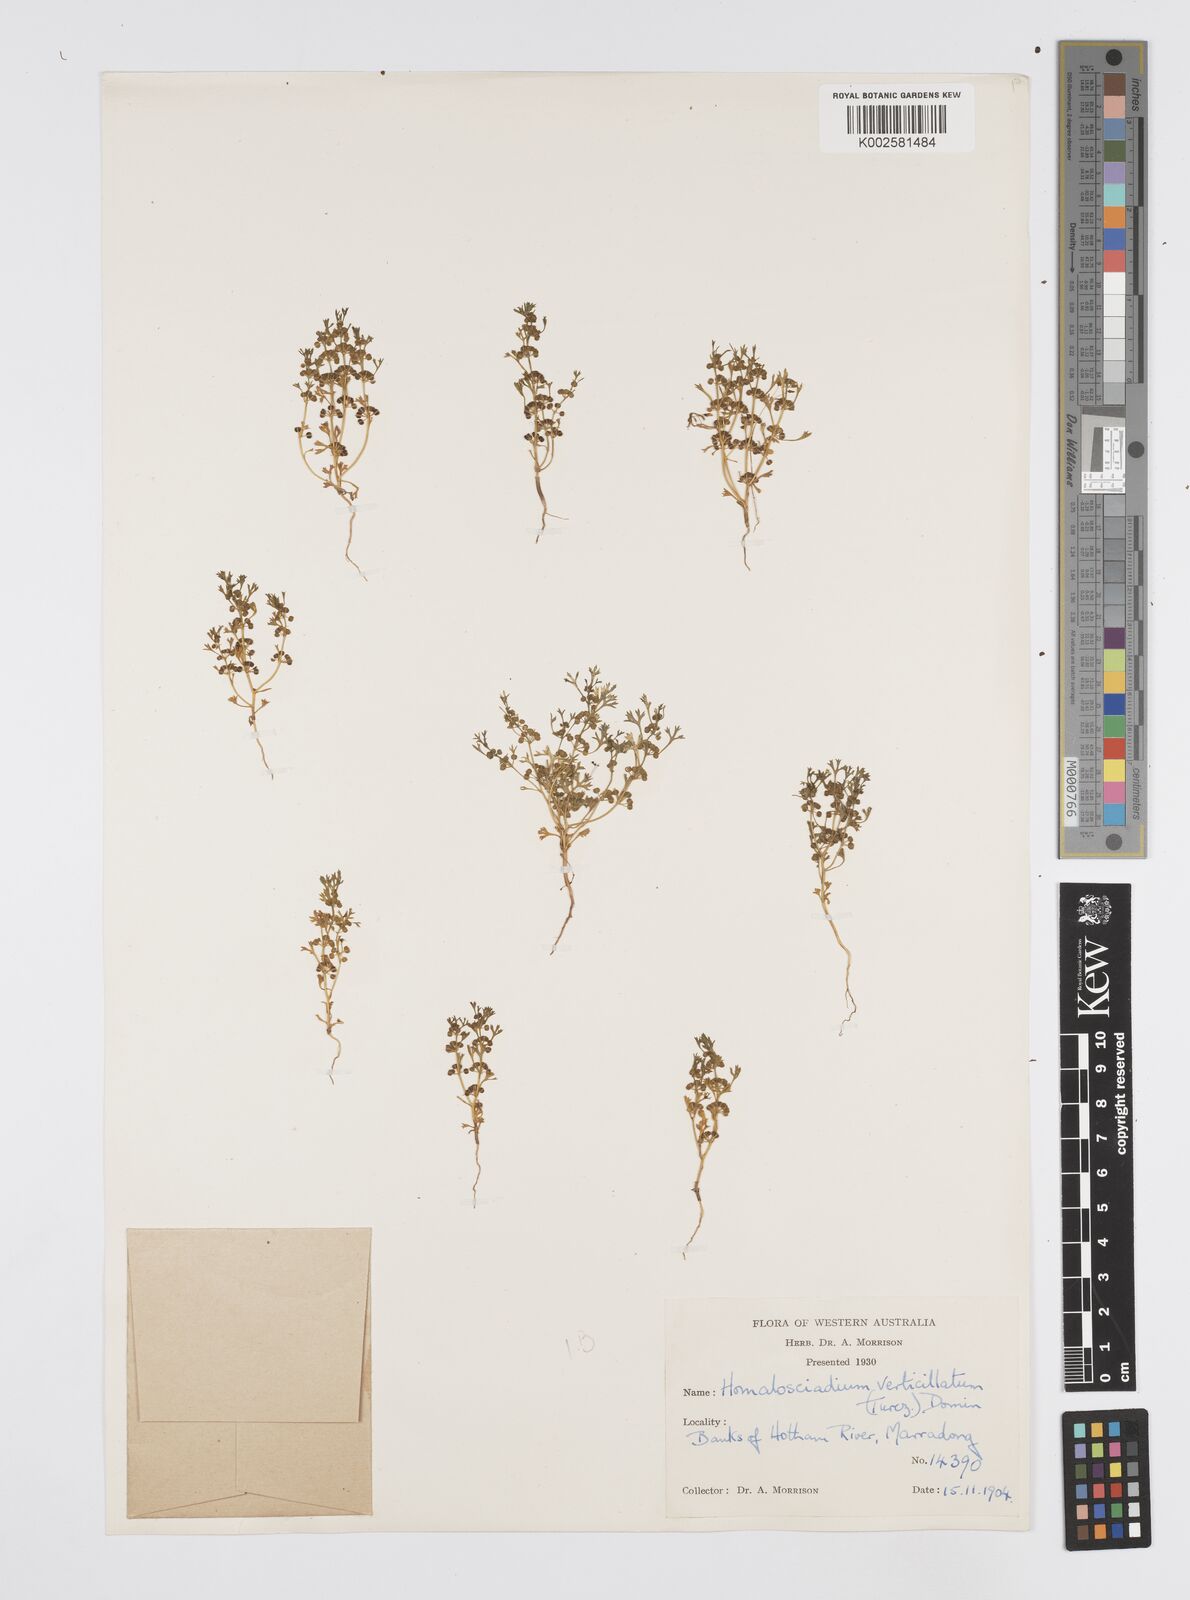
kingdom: Plantae
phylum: Tracheophyta
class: Magnoliopsida
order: Apiales
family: Apiaceae
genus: Homalosciadium
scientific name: Homalosciadium homalocarpum
